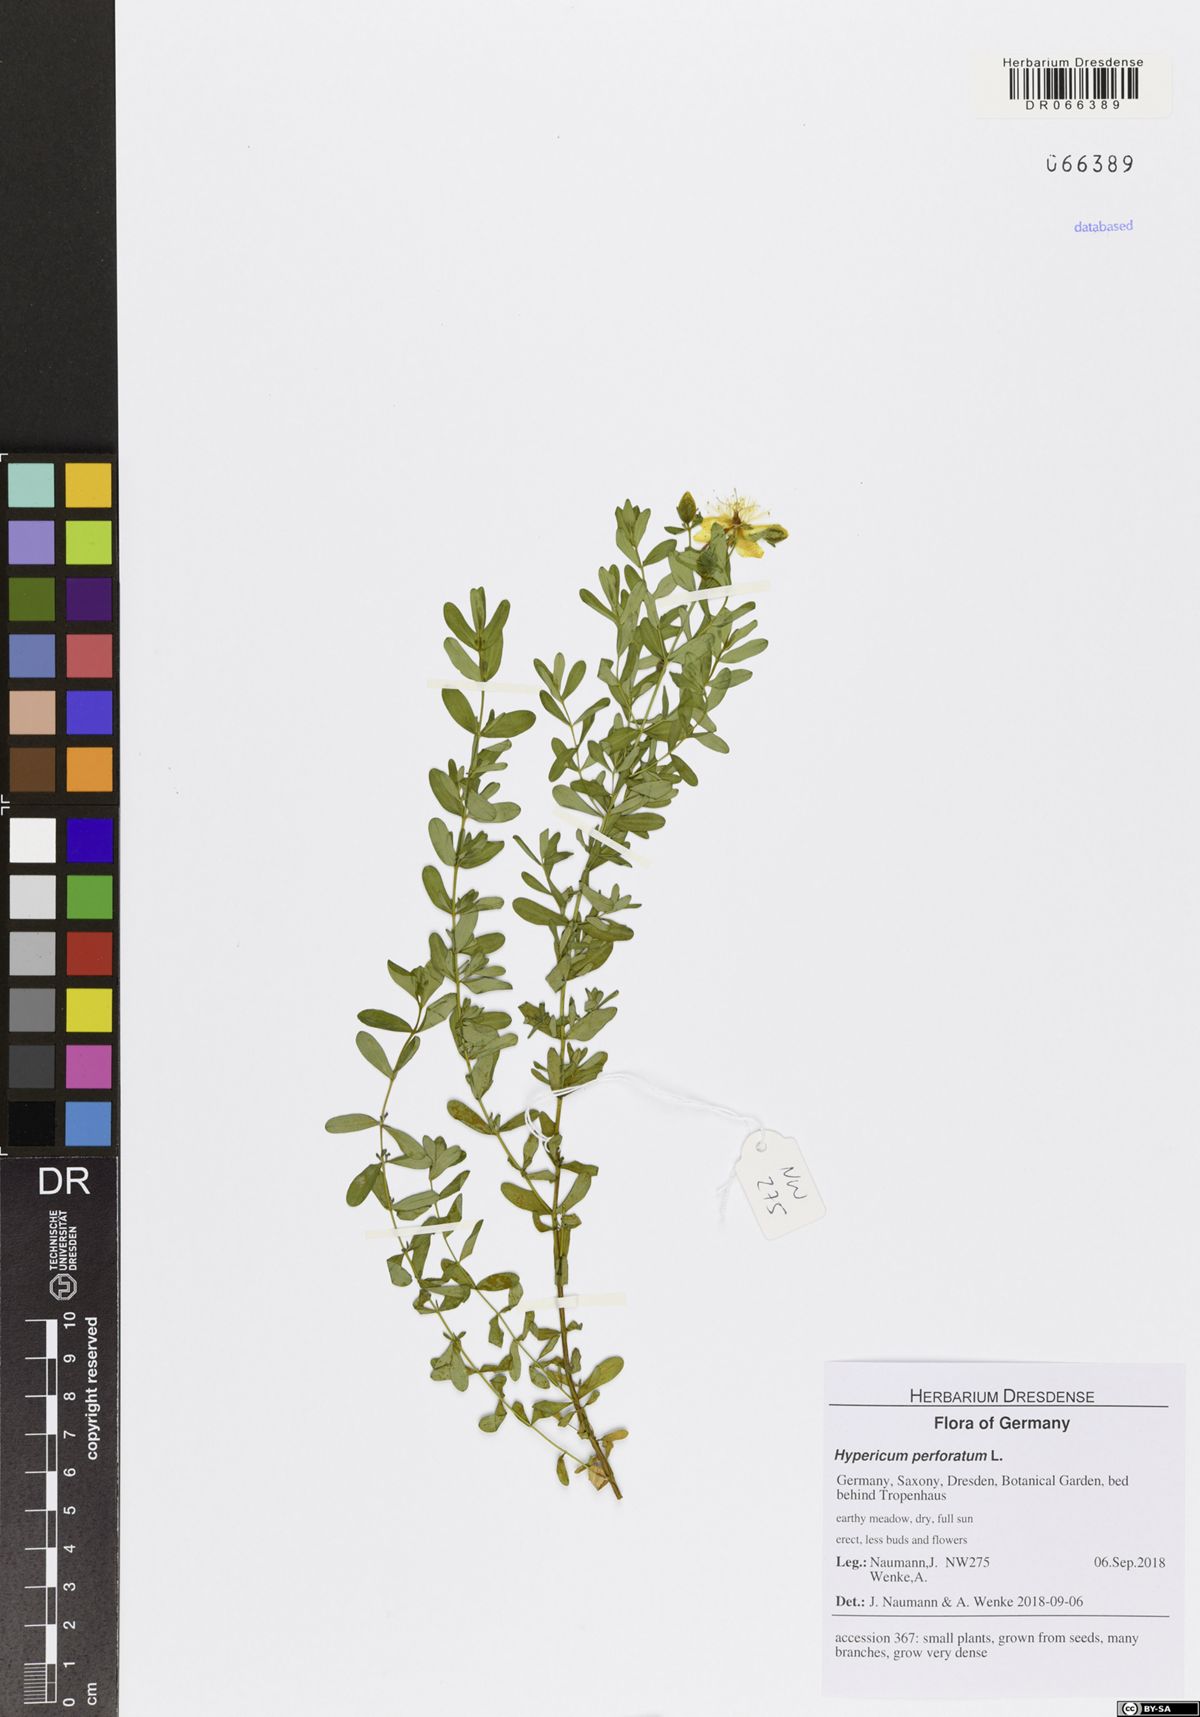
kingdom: Plantae
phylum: Tracheophyta
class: Magnoliopsida
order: Malpighiales
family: Hypericaceae
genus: Hypericum
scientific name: Hypericum perforatum
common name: Common st. johnswort
